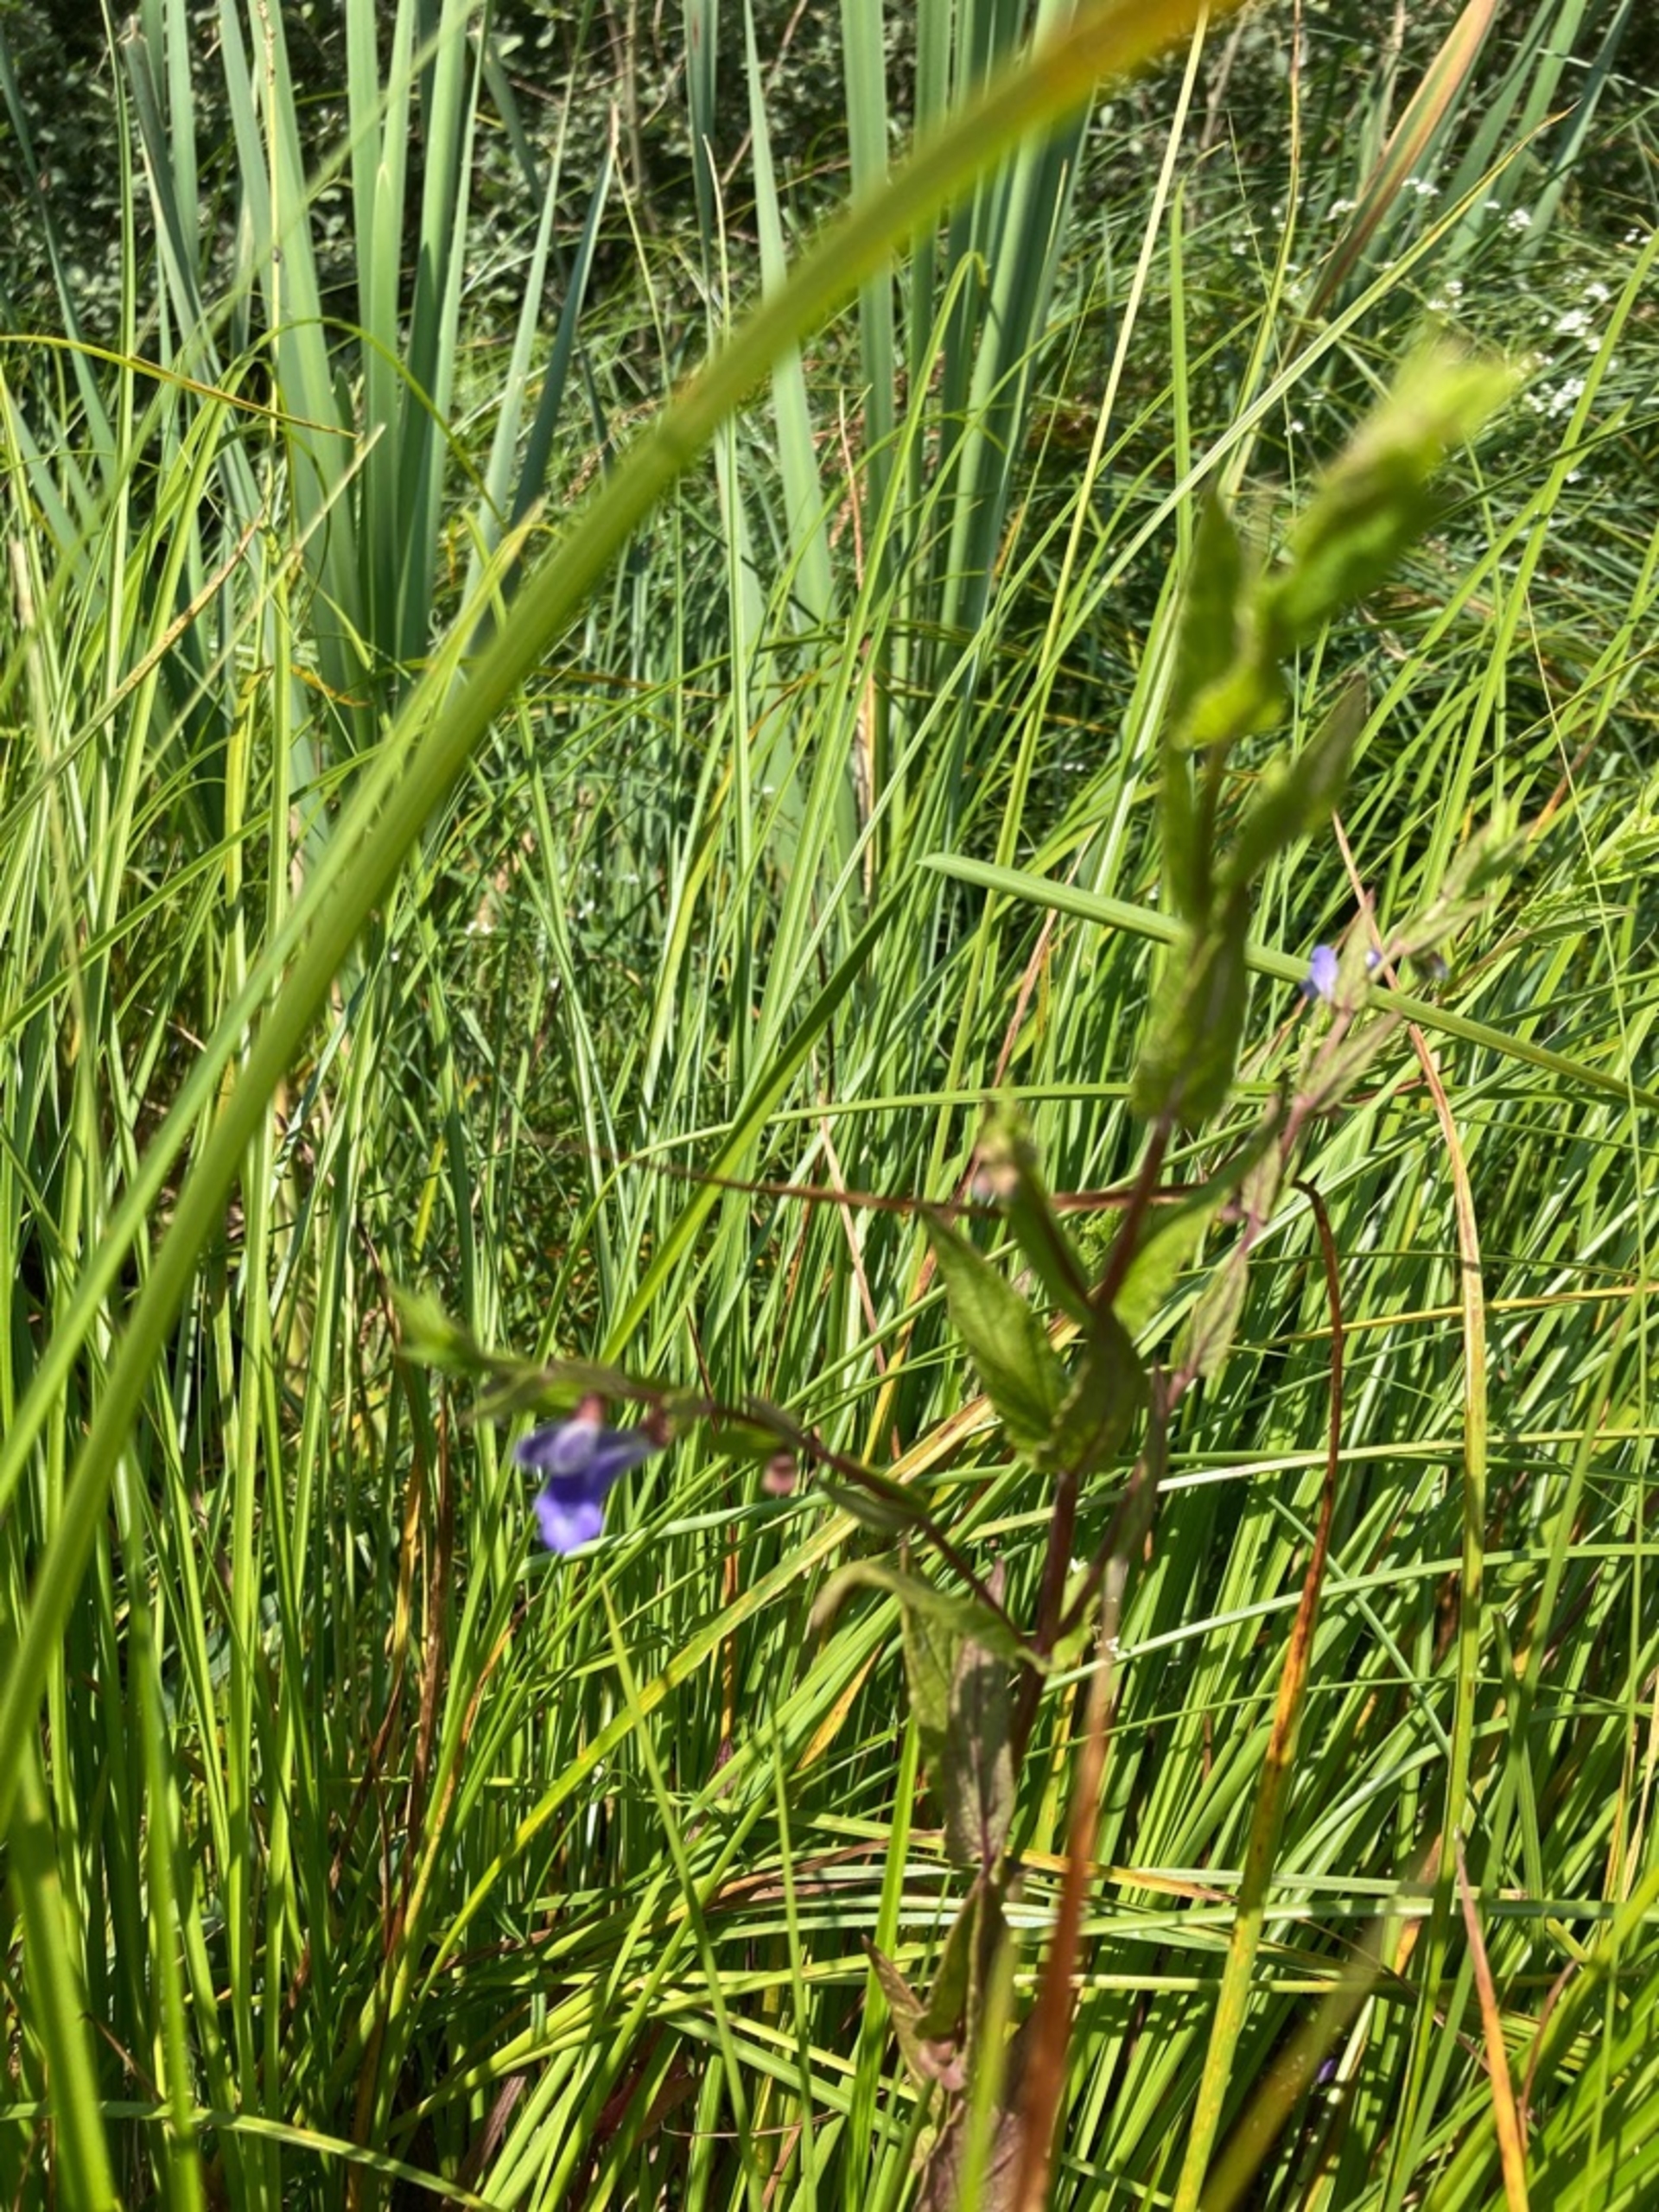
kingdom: Plantae
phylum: Tracheophyta
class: Magnoliopsida
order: Lamiales
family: Lamiaceae
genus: Scutellaria
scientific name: Scutellaria galericulata
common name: Almindelig skjolddrager
